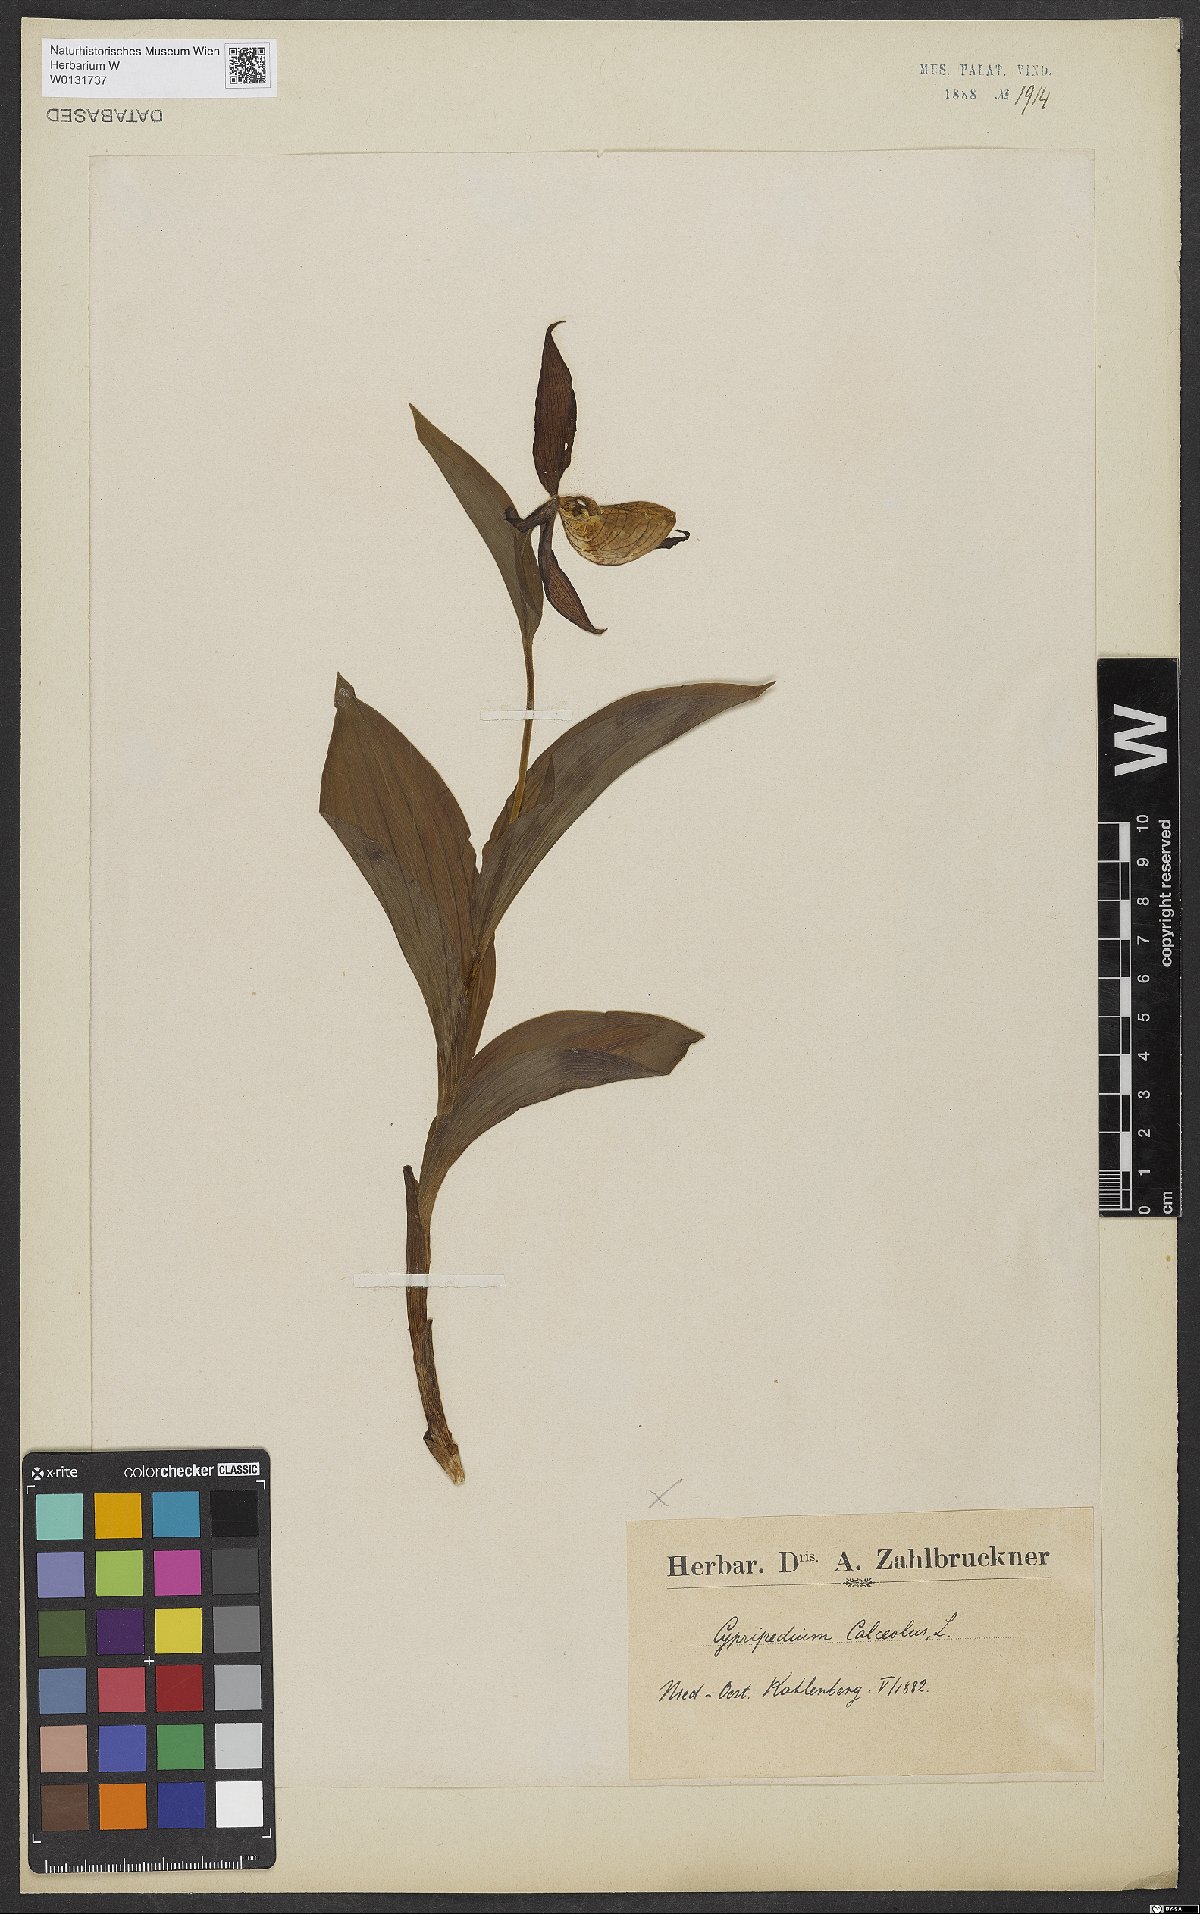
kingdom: Plantae
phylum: Tracheophyta
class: Liliopsida
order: Asparagales
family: Orchidaceae
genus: Cypripedium
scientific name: Cypripedium calceolus
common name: Lady's-slipper
